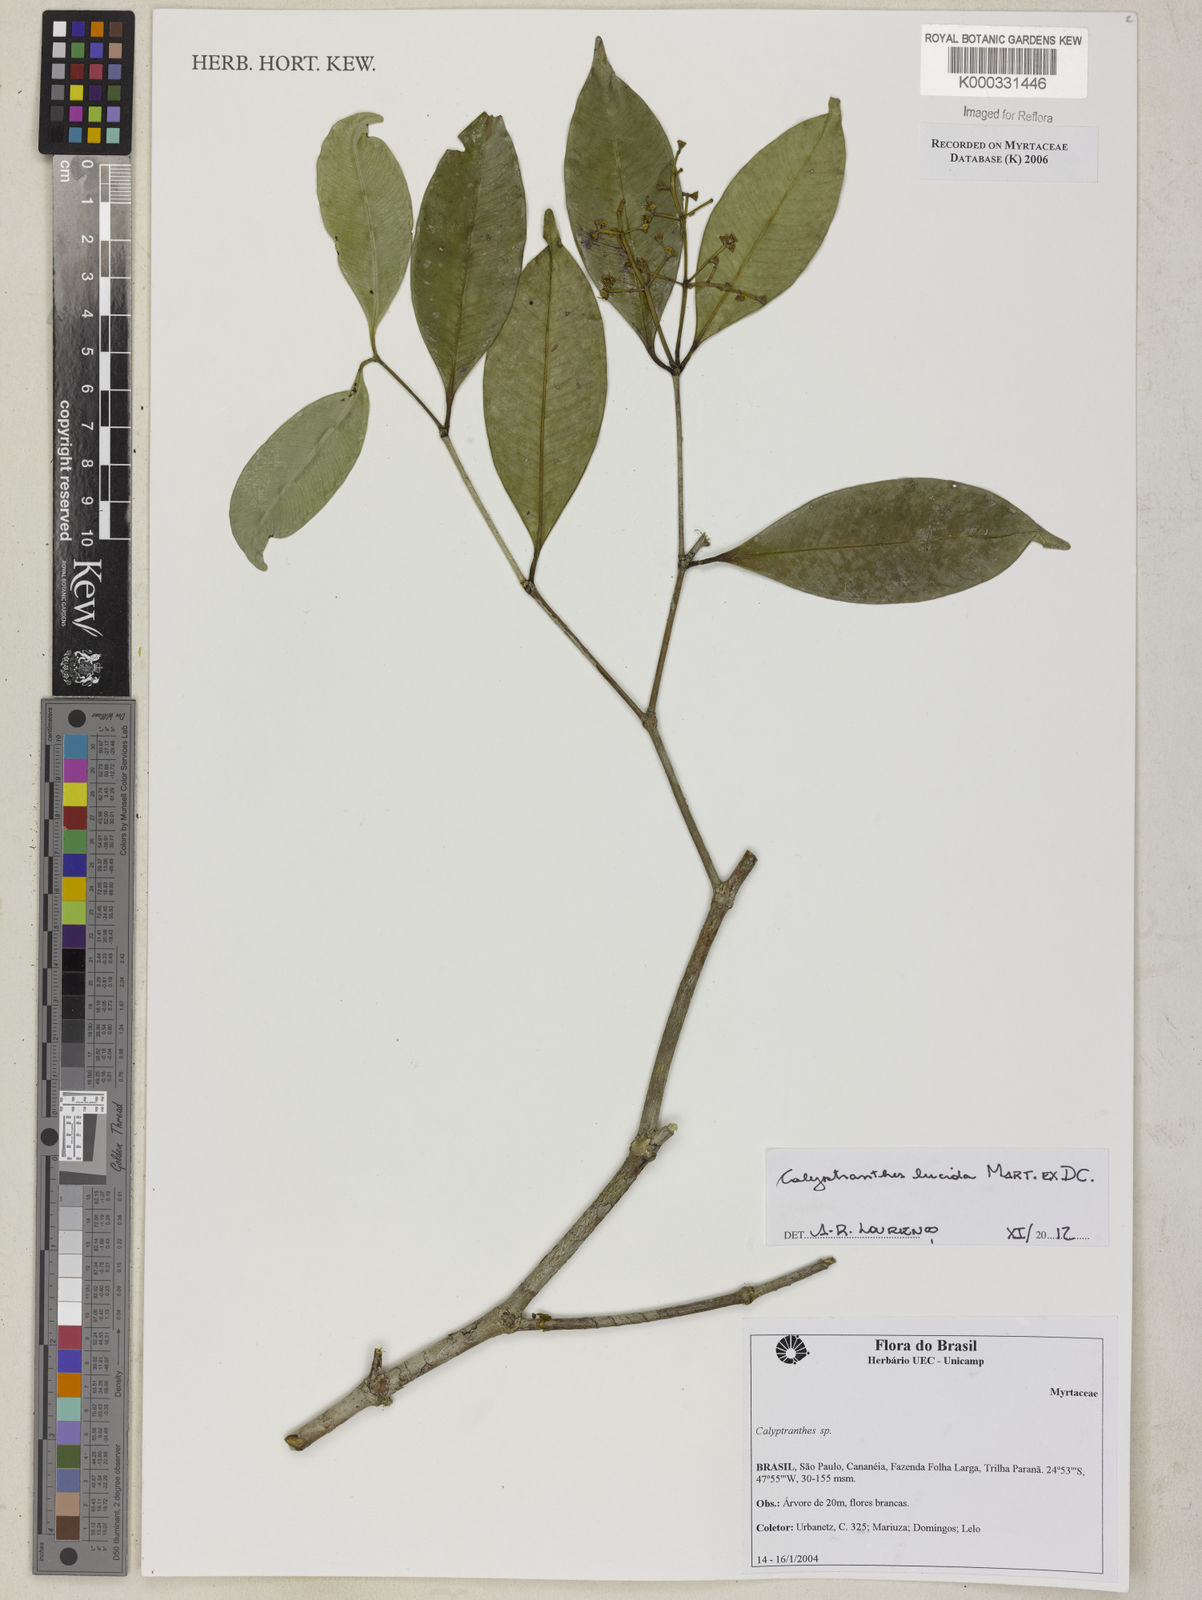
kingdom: Plantae
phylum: Tracheophyta
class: Magnoliopsida
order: Myrtales
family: Myrtaceae
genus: Calyptranthes
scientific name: Calyptranthes
